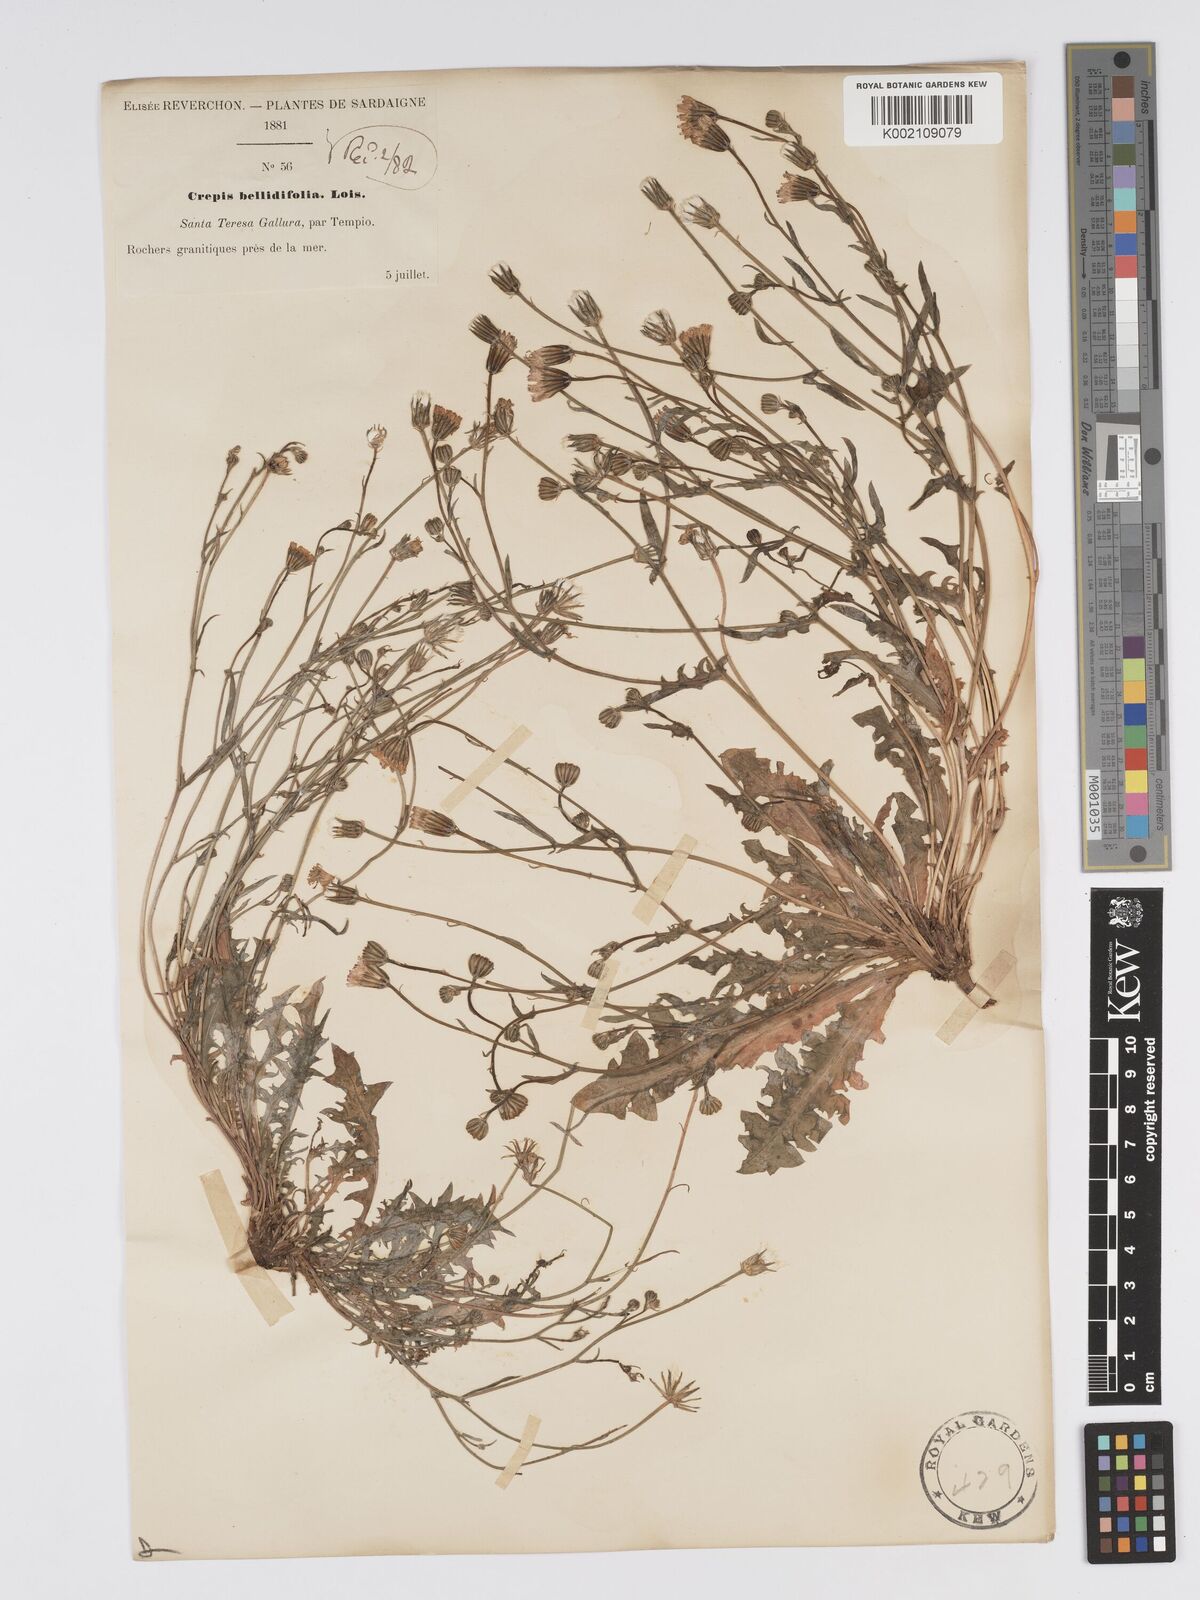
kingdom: Plantae
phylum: Tracheophyta
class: Magnoliopsida
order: Asterales
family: Asteraceae
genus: Crepis
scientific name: Crepis bellidifolia
